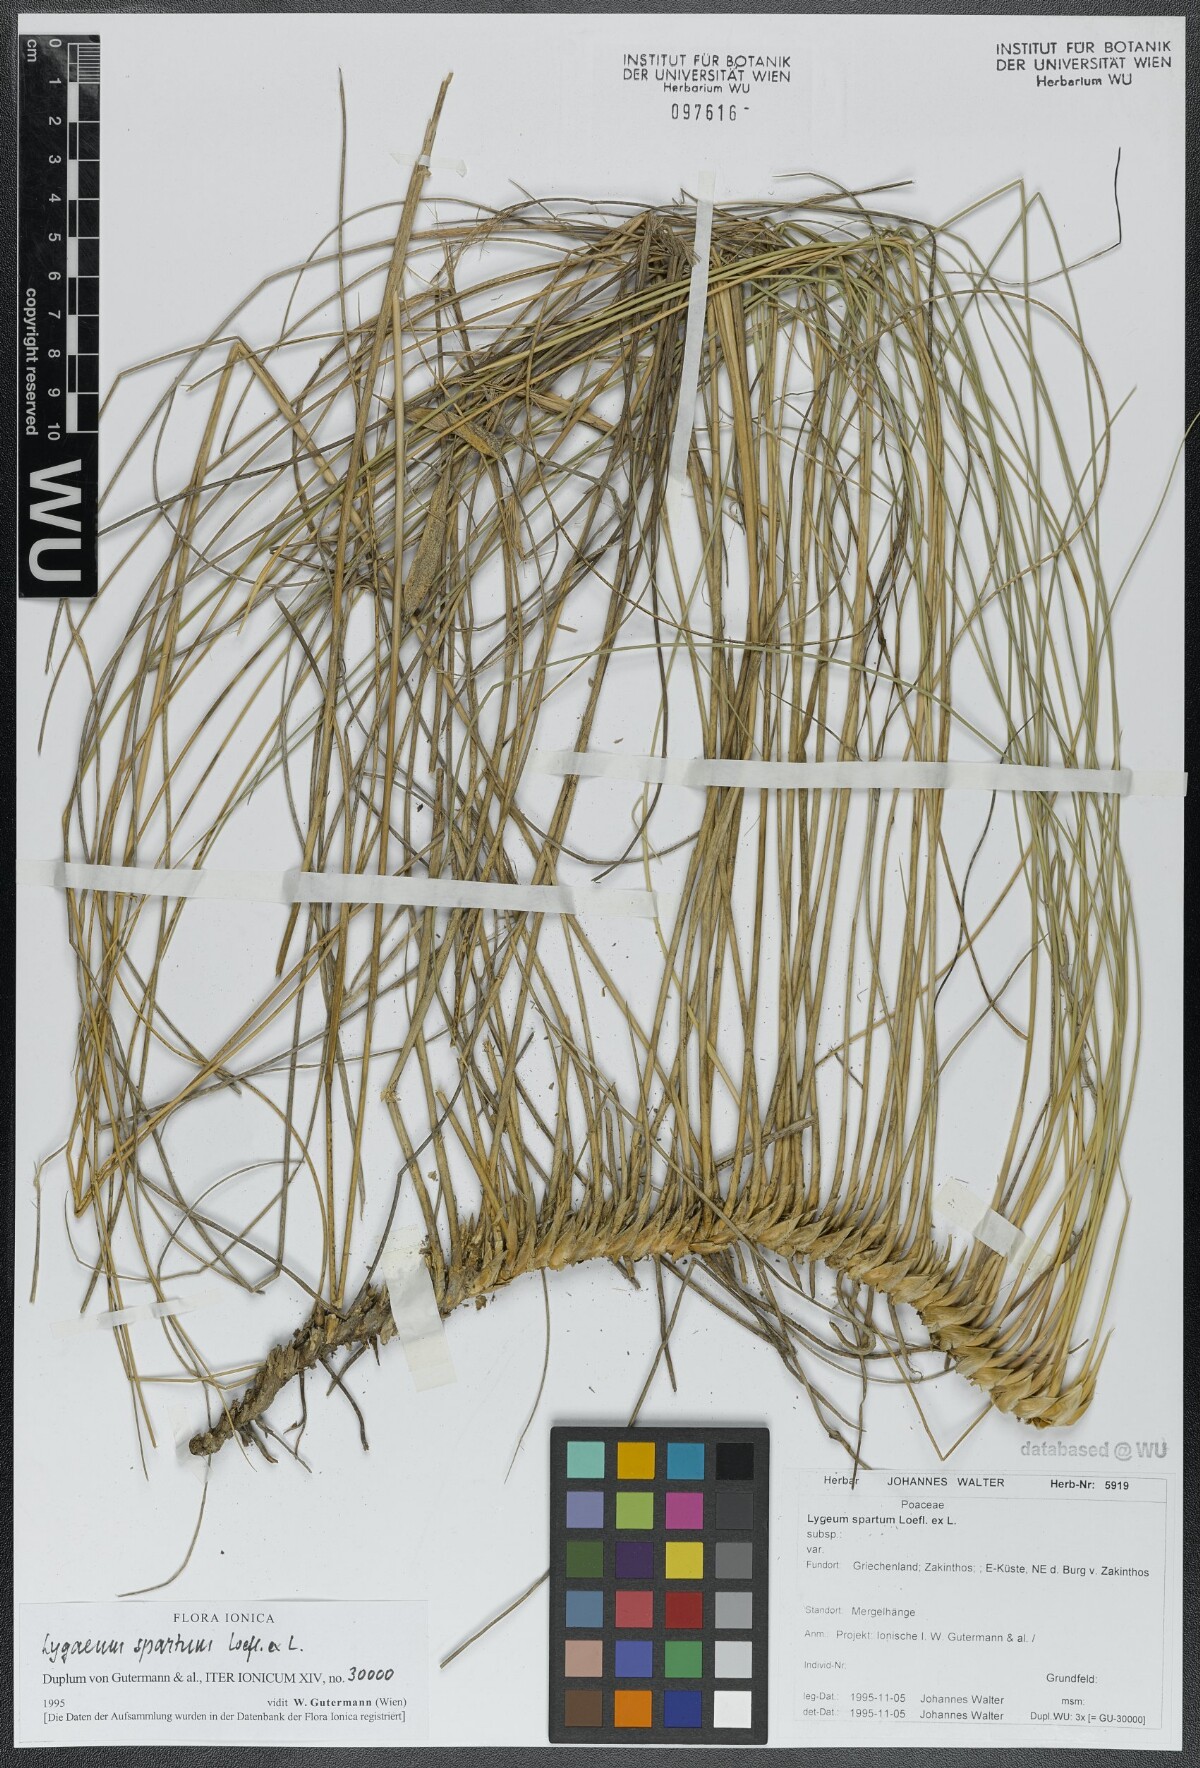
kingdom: Plantae
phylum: Tracheophyta
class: Liliopsida
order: Poales
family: Poaceae
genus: Lygeum
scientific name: Lygeum spartum
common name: Albardine
